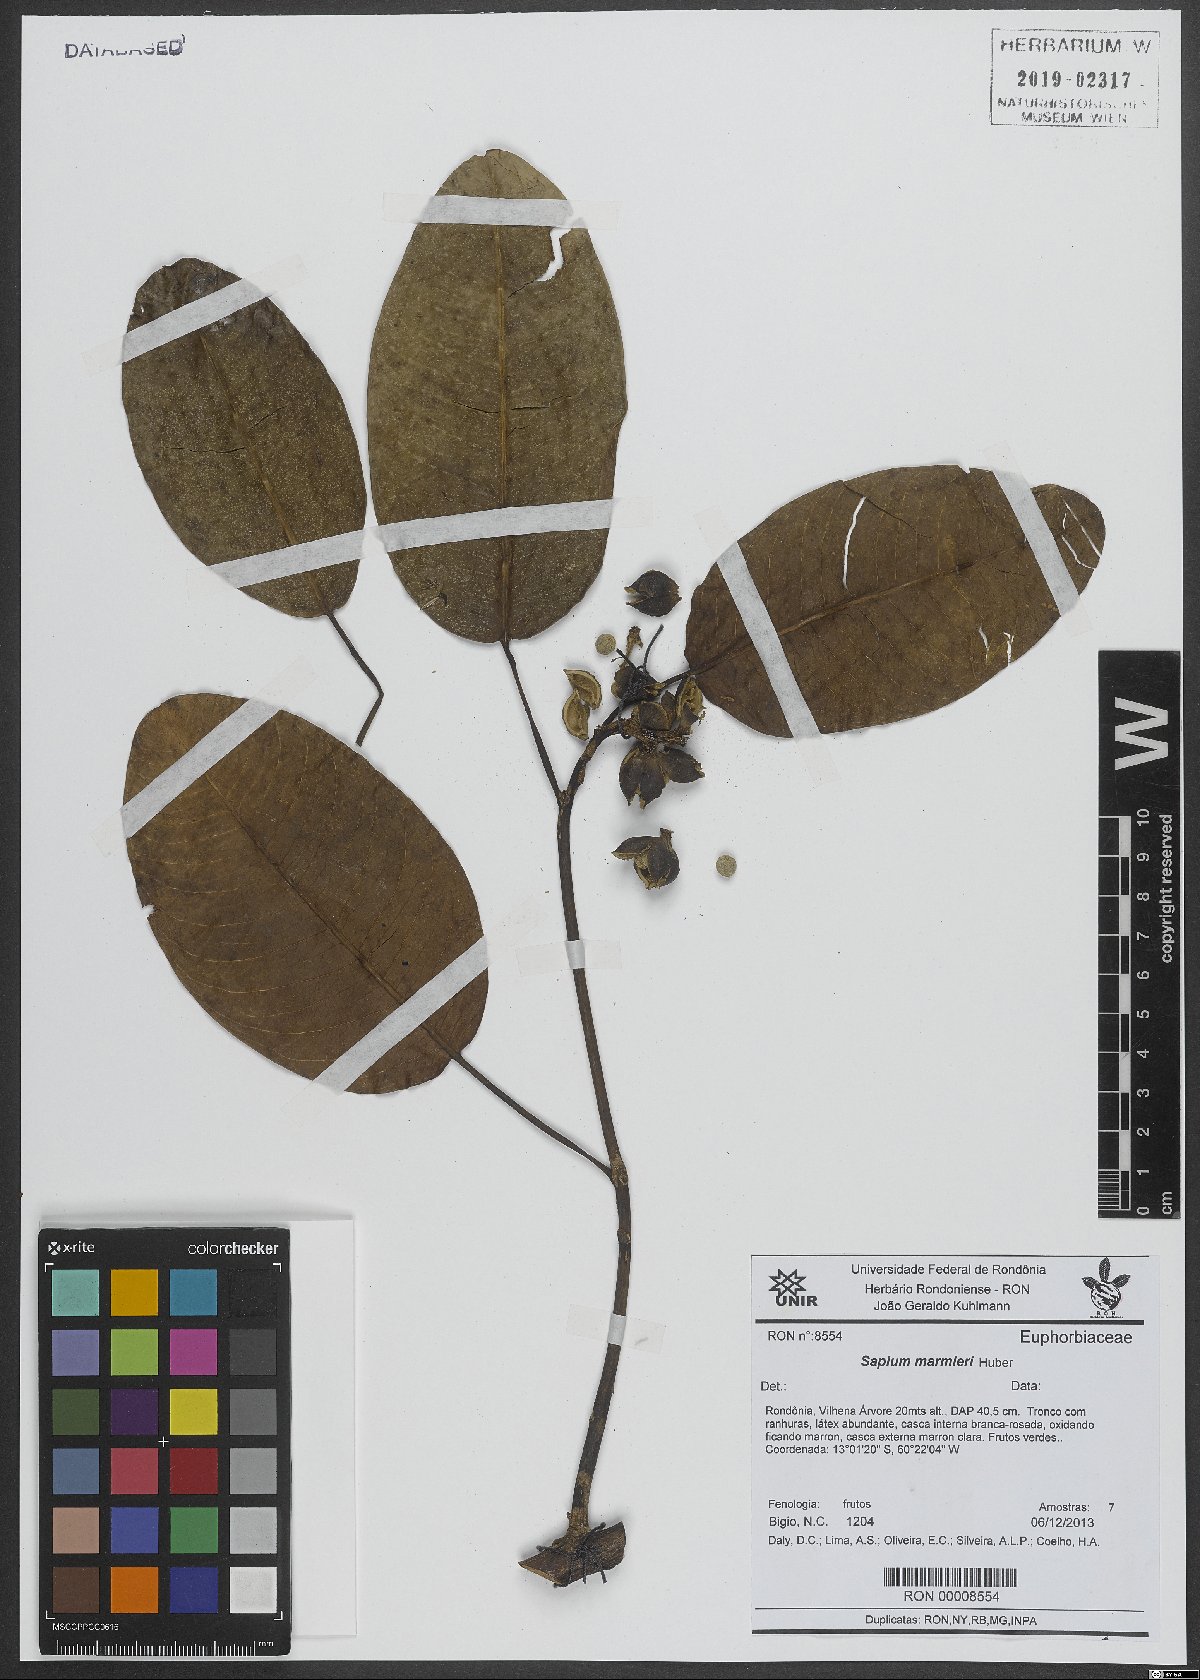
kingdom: Plantae
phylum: Tracheophyta
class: Magnoliopsida
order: Malpighiales
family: Euphorbiaceae
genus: Sapium
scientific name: Sapium marmieri
